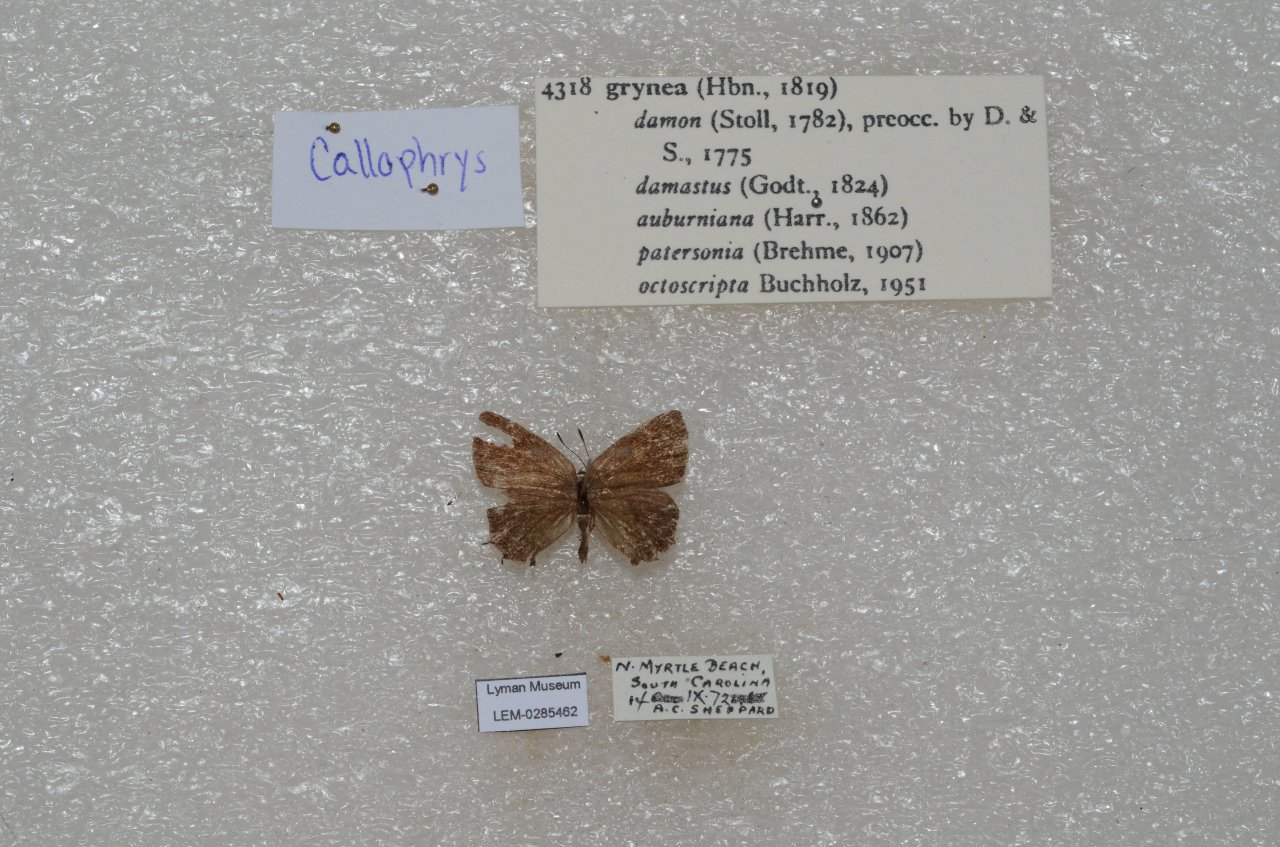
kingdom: Animalia
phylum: Arthropoda
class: Insecta
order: Lepidoptera
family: Lycaenidae
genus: Mitoura
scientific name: Mitoura gryneus
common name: Juniper Hairstreak
